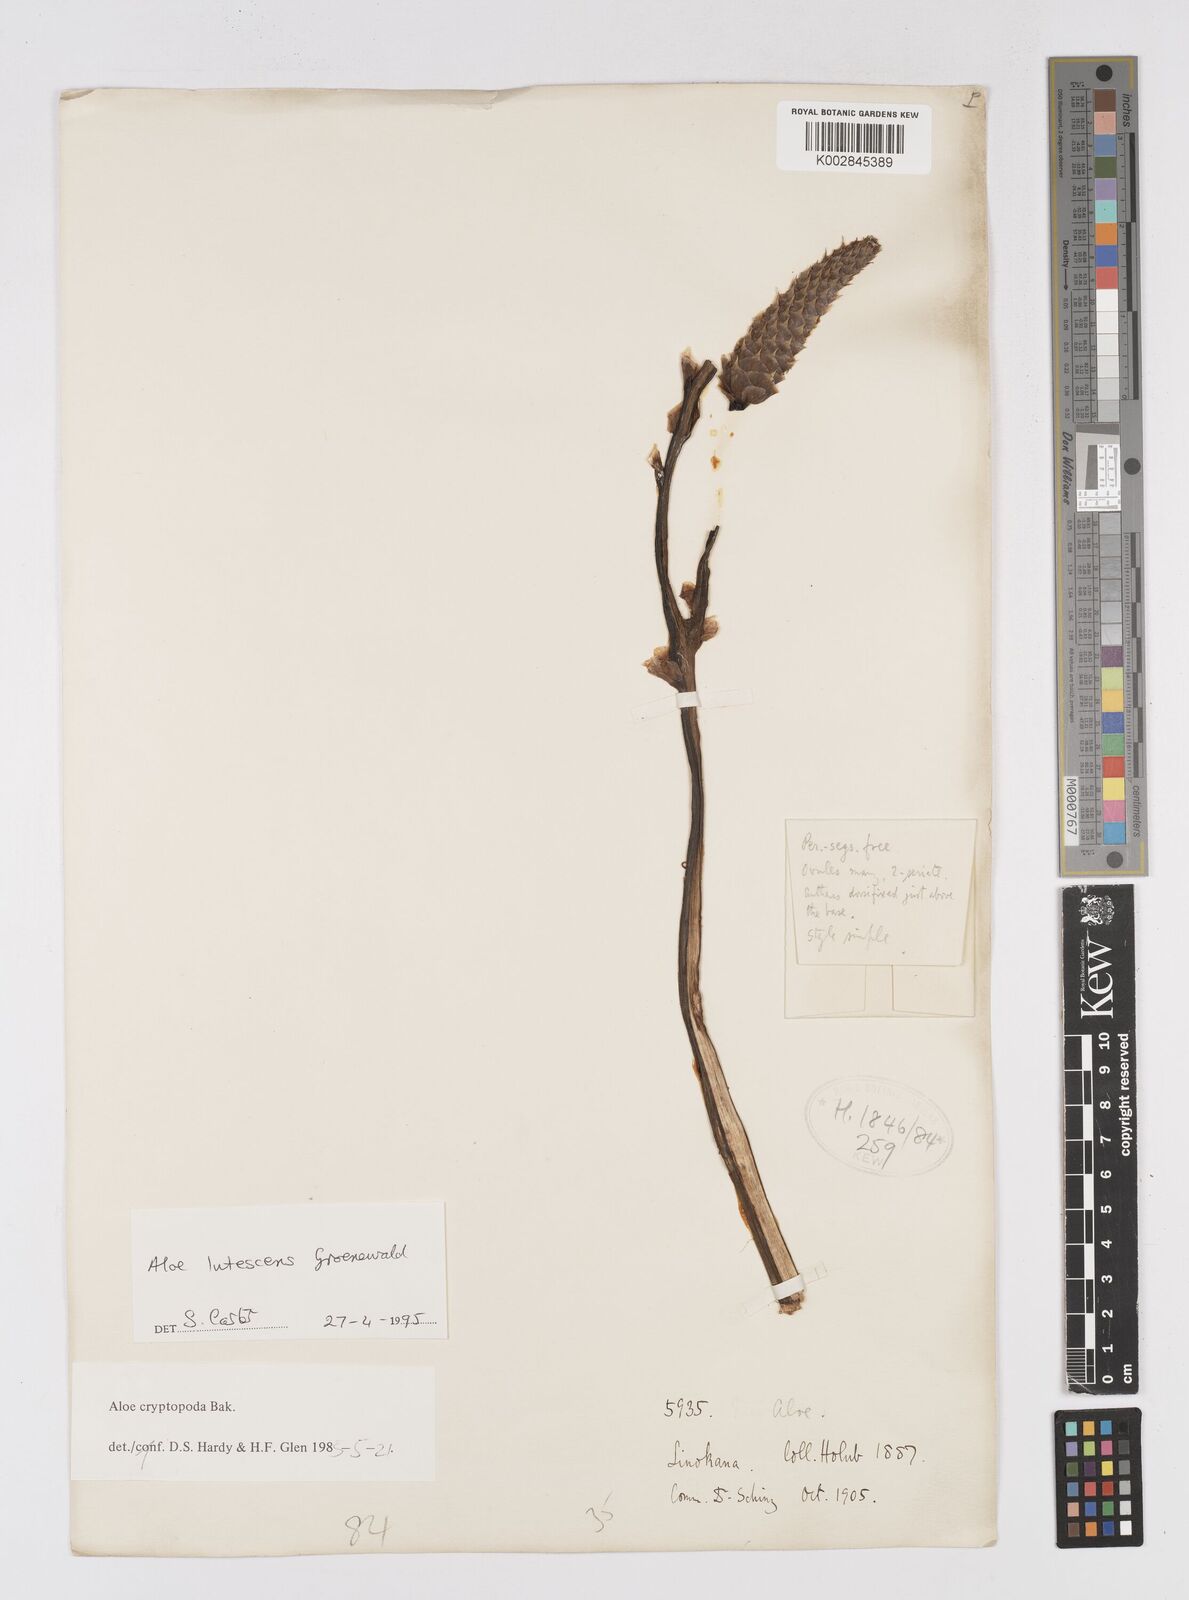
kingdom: Plantae
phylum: Tracheophyta
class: Liliopsida
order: Asparagales
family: Asphodelaceae
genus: Aloe
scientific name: Aloe lutescens
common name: Malapati aloe
